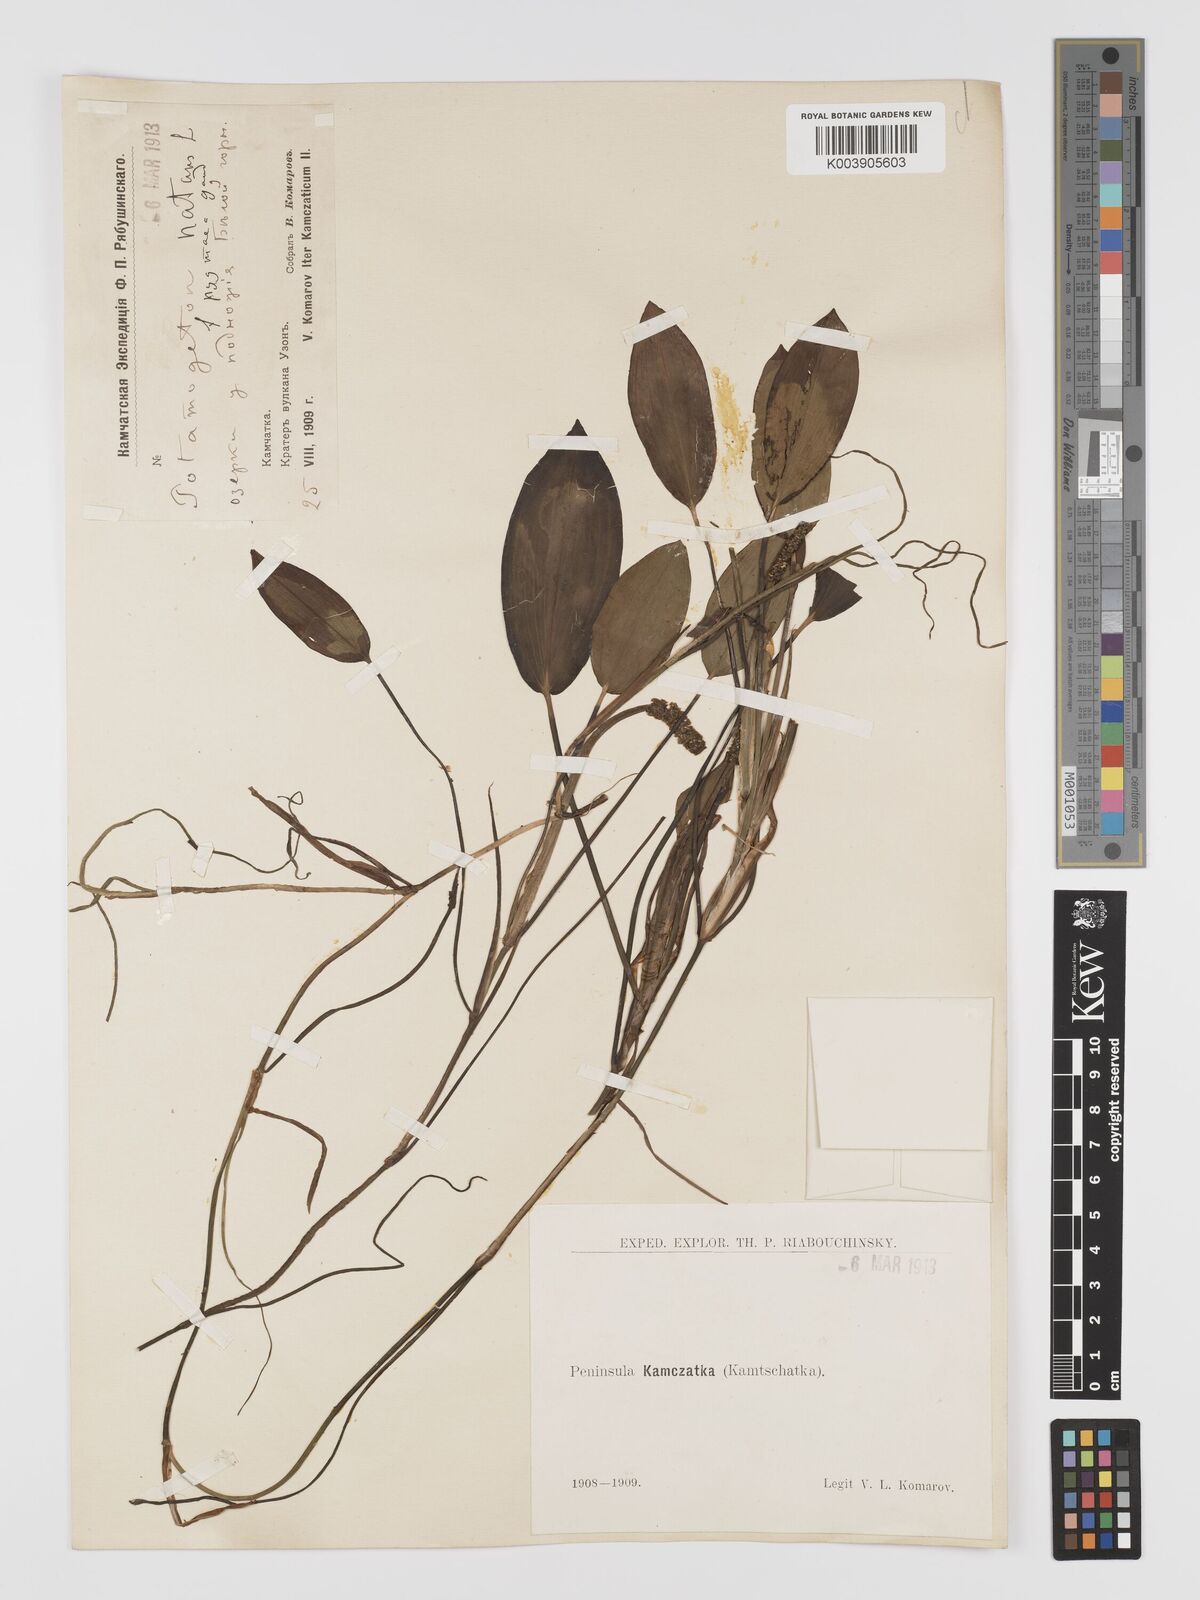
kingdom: Plantae
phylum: Tracheophyta
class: Liliopsida
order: Alismatales
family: Potamogetonaceae
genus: Potamogeton
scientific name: Potamogeton natans
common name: Broad-leaved pondweed
